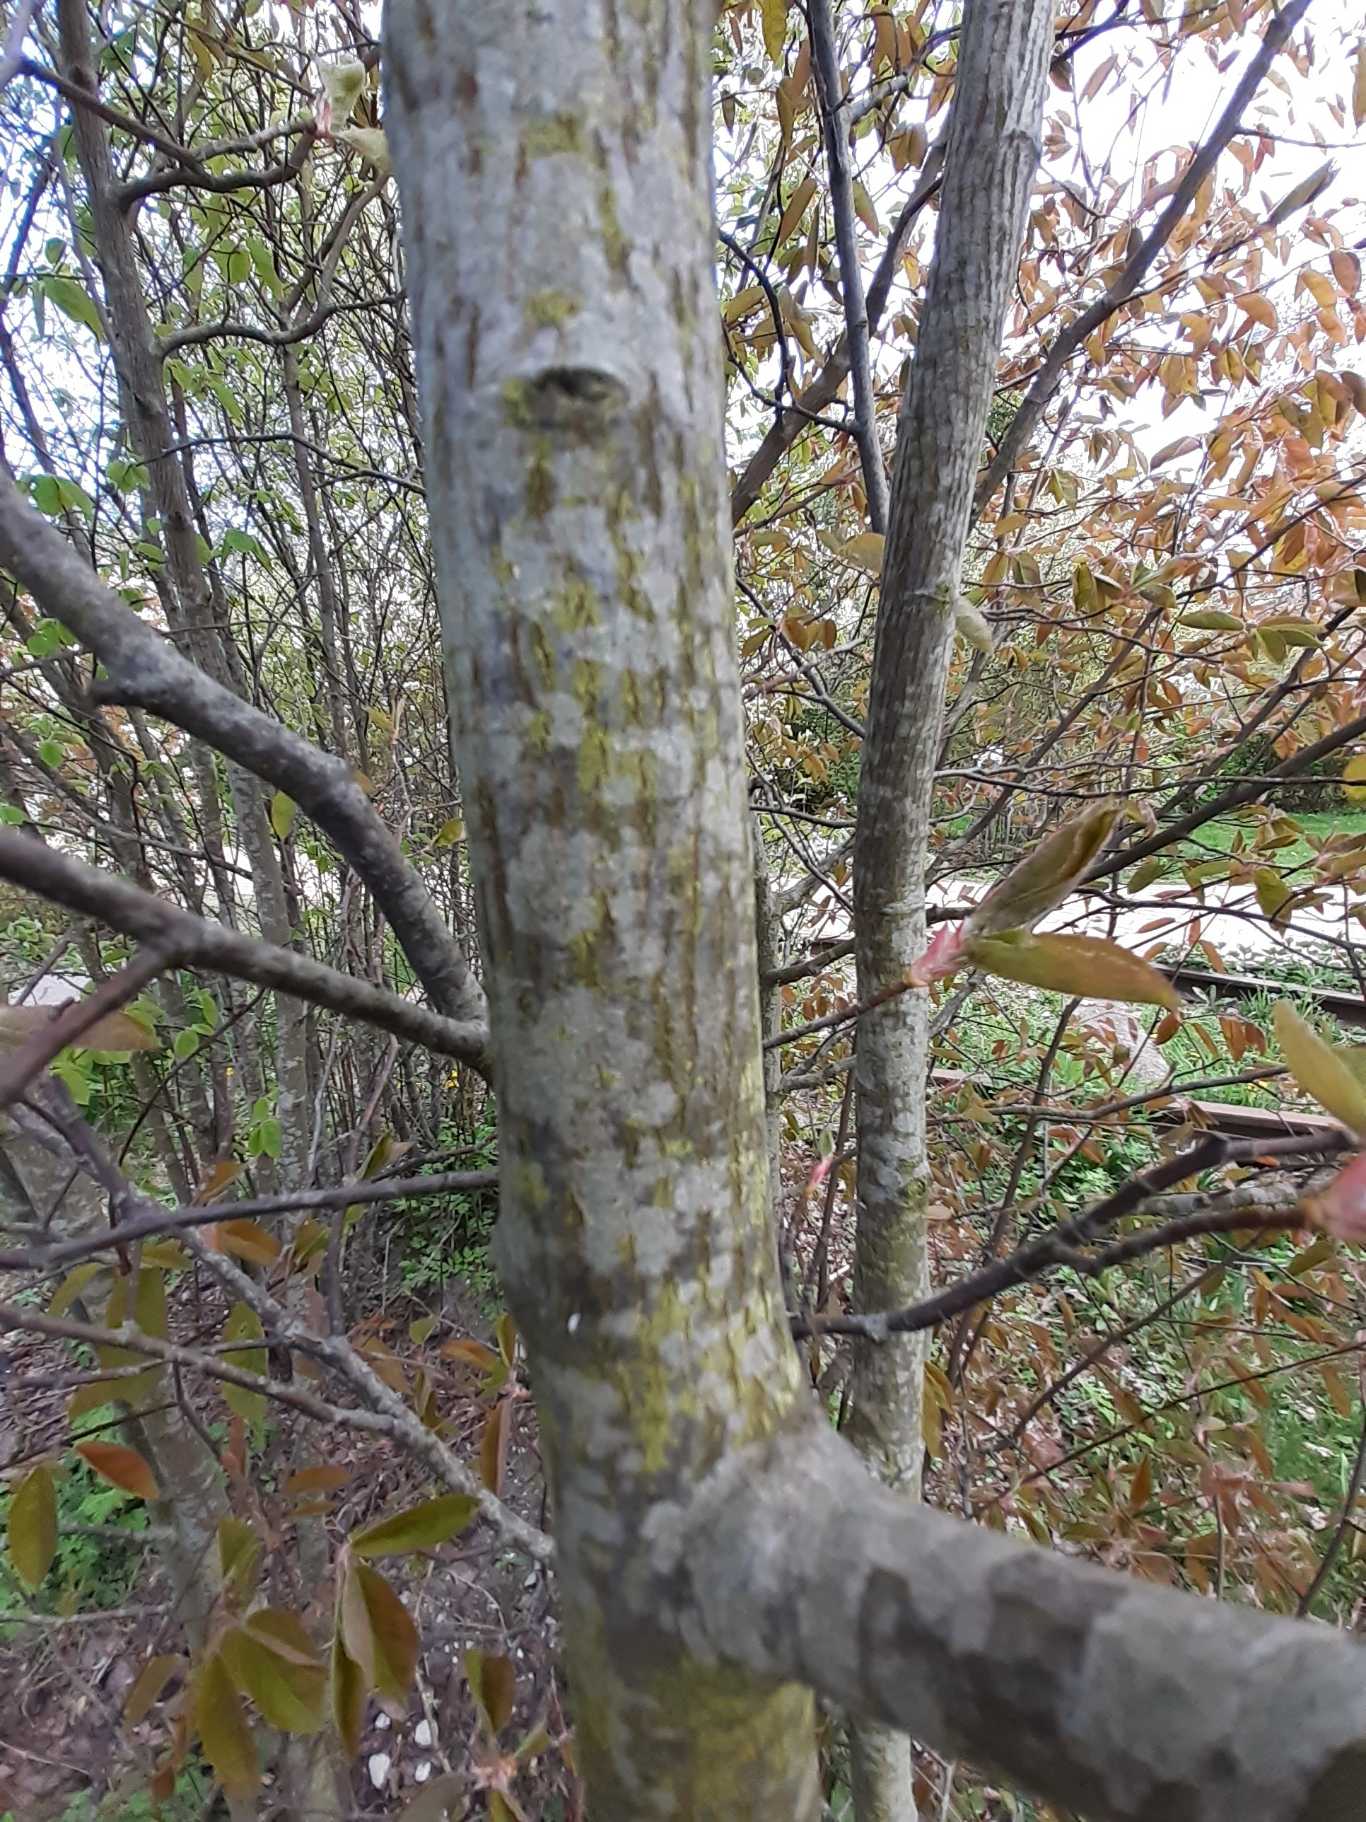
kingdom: Plantae
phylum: Tracheophyta
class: Magnoliopsida
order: Rosales
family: Rosaceae
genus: Amelanchier
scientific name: Amelanchier lamarckii
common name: Bærmispel
